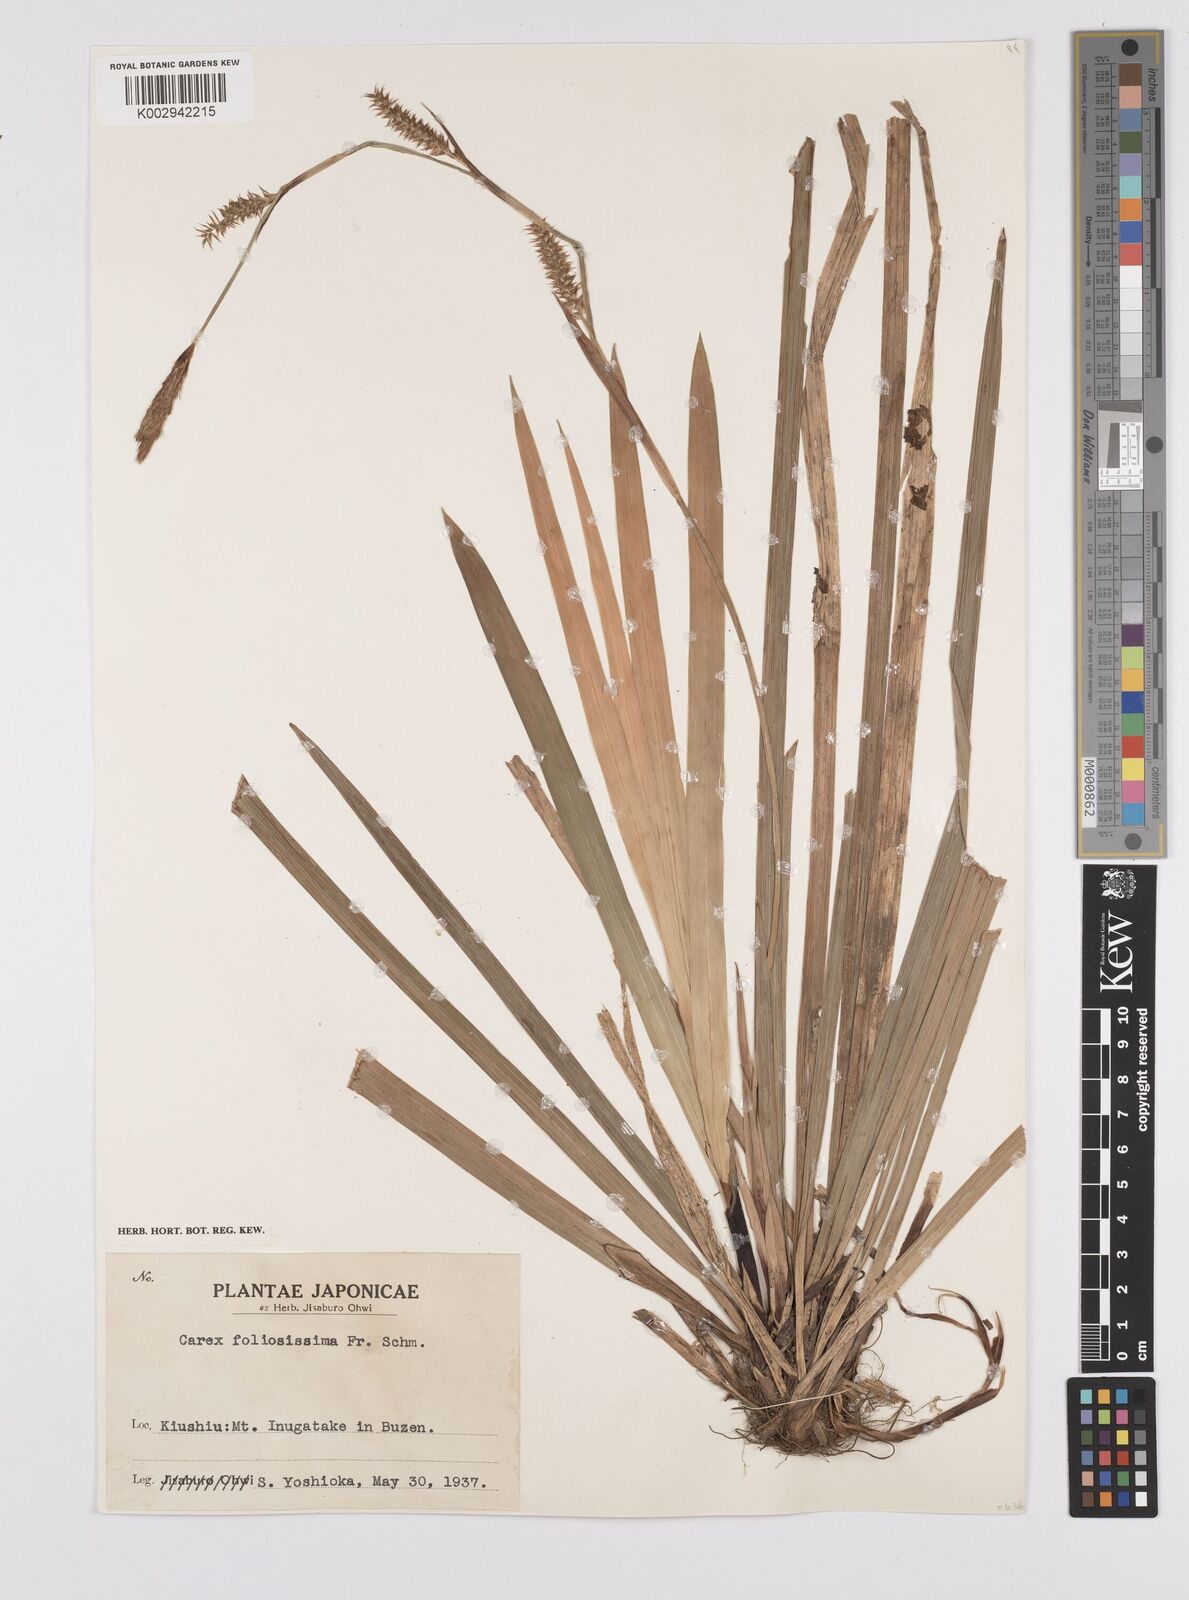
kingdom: Plantae
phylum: Tracheophyta
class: Liliopsida
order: Poales
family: Cyperaceae
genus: Carex
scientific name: Carex morrowii
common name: Japanese sedge
